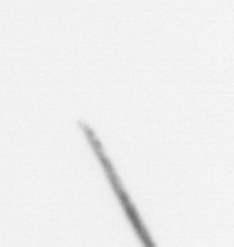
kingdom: Chromista
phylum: Ochrophyta
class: Bacillariophyceae
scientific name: Bacillariophyceae
